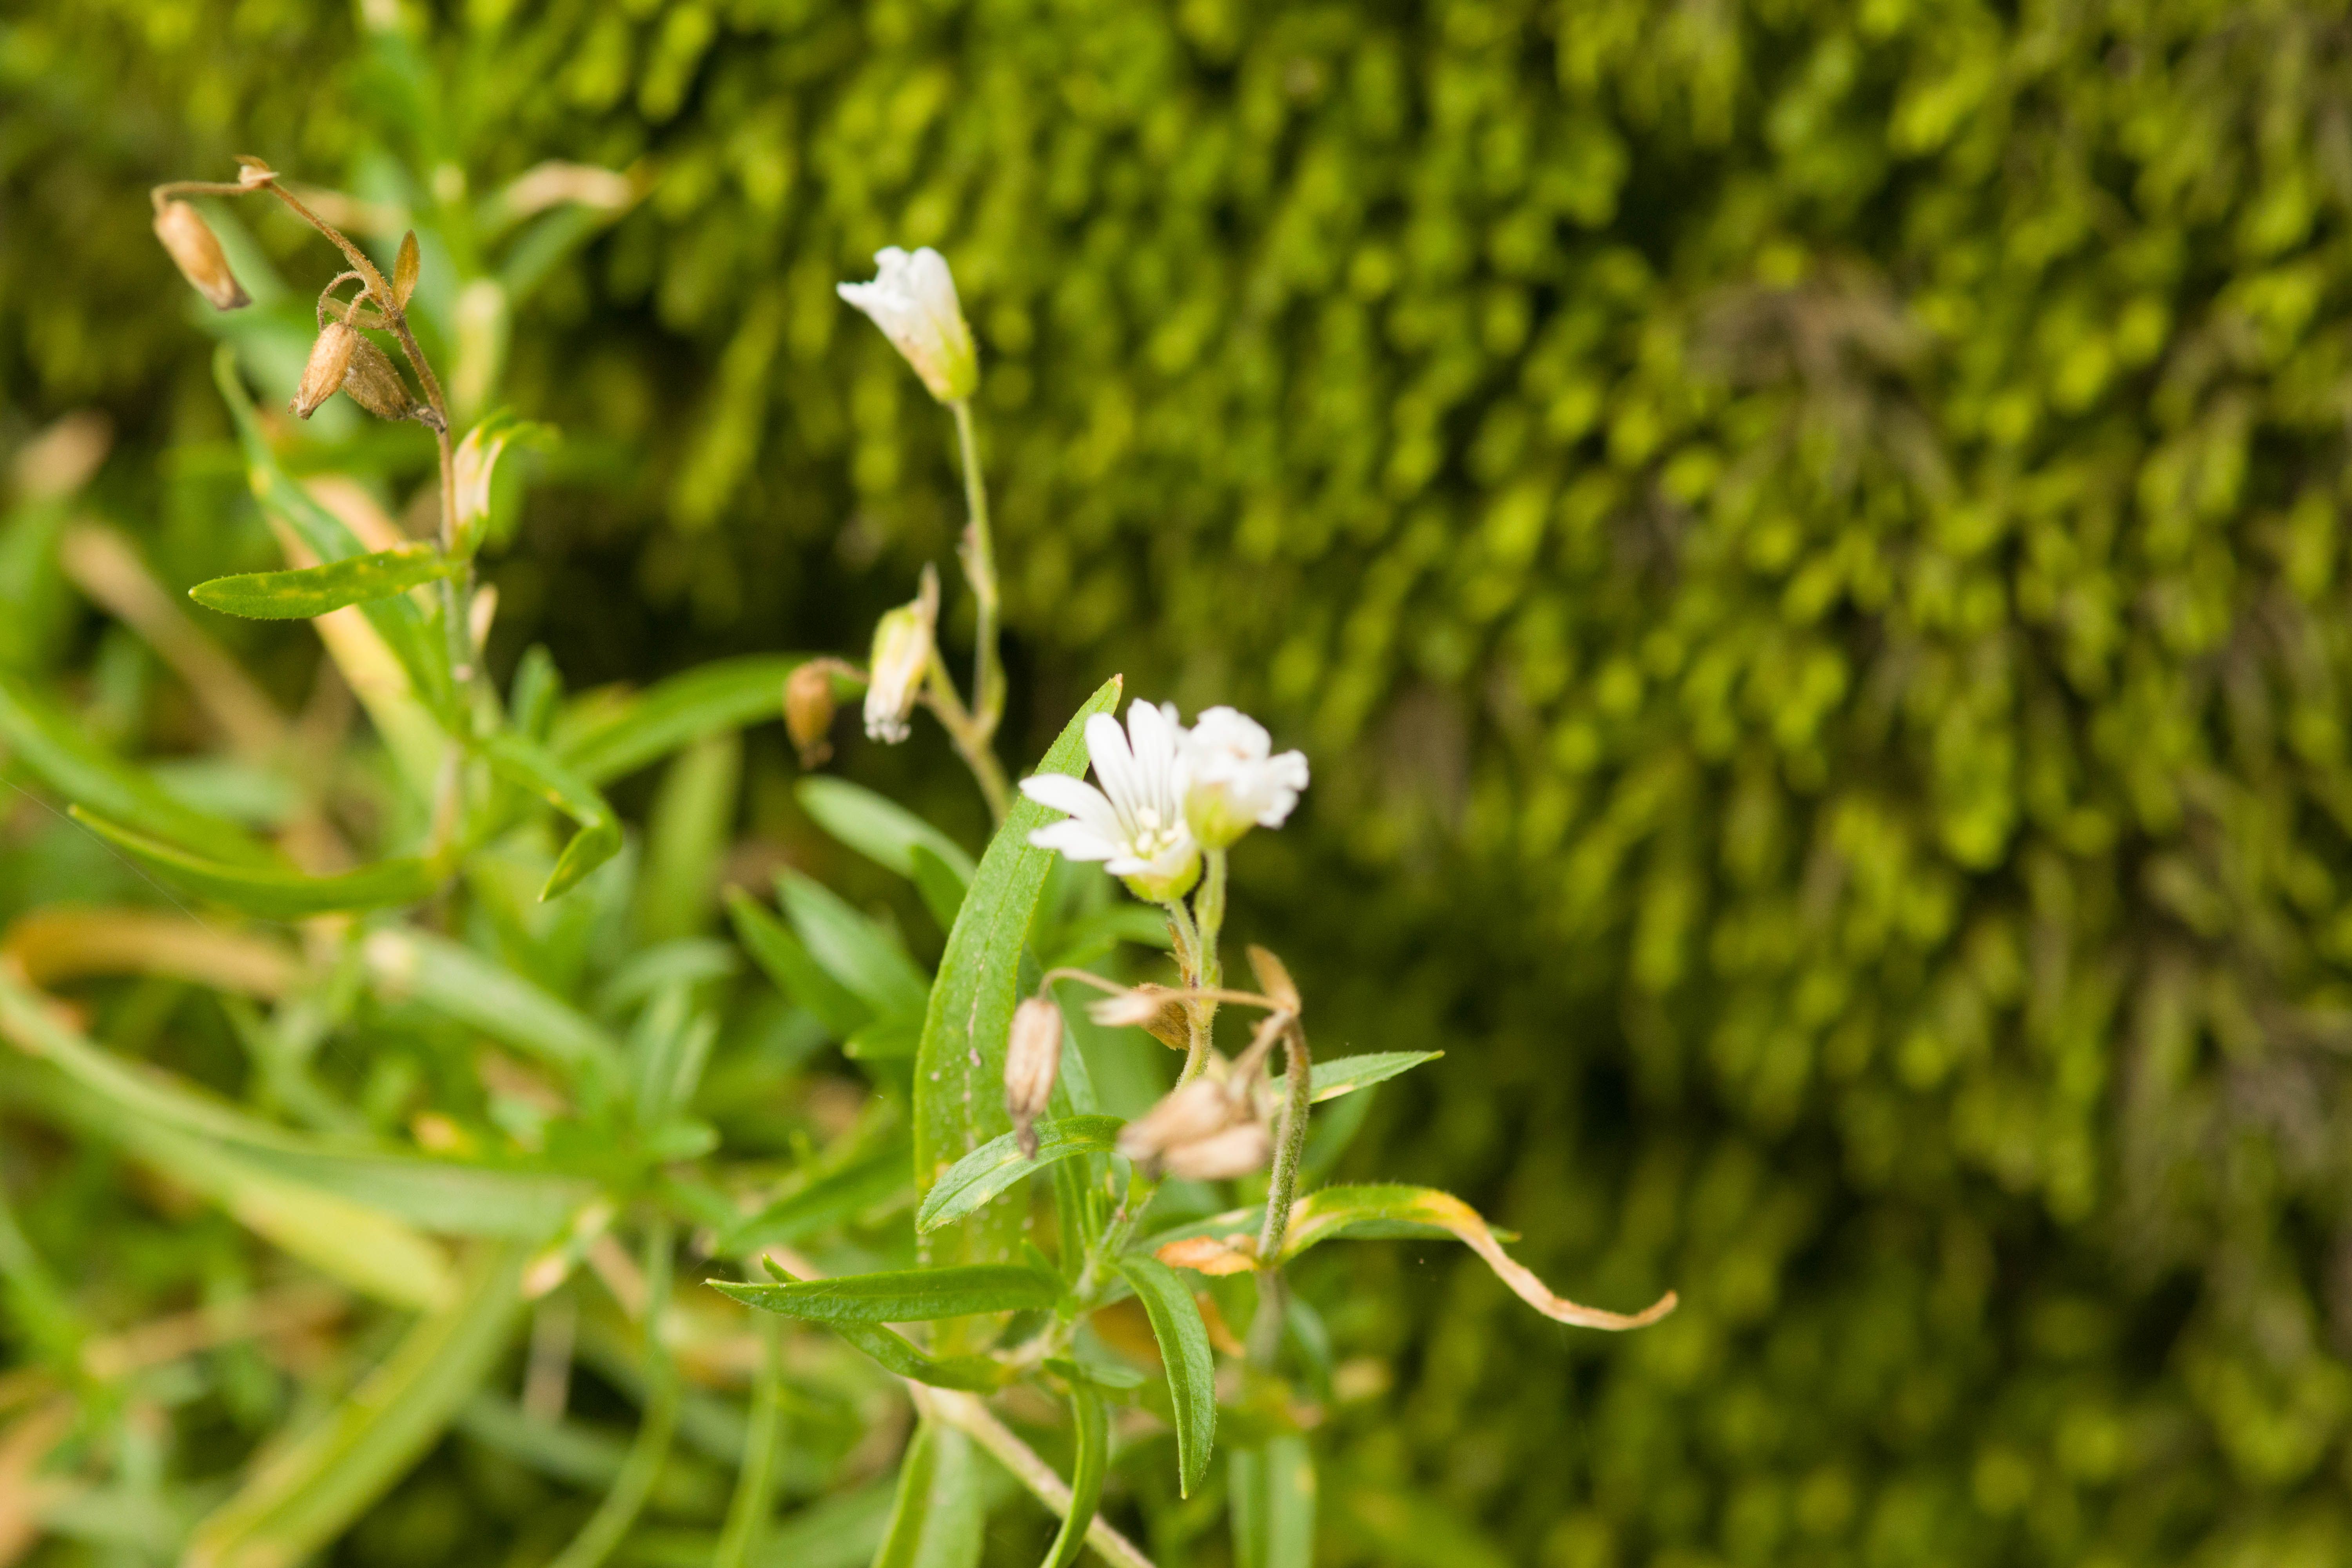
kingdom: Plantae
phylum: Tracheophyta
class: Magnoliopsida
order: Caryophyllales
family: Caryophyllaceae
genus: Cerastium
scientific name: Cerastium arvense
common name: Field mouse-ear
